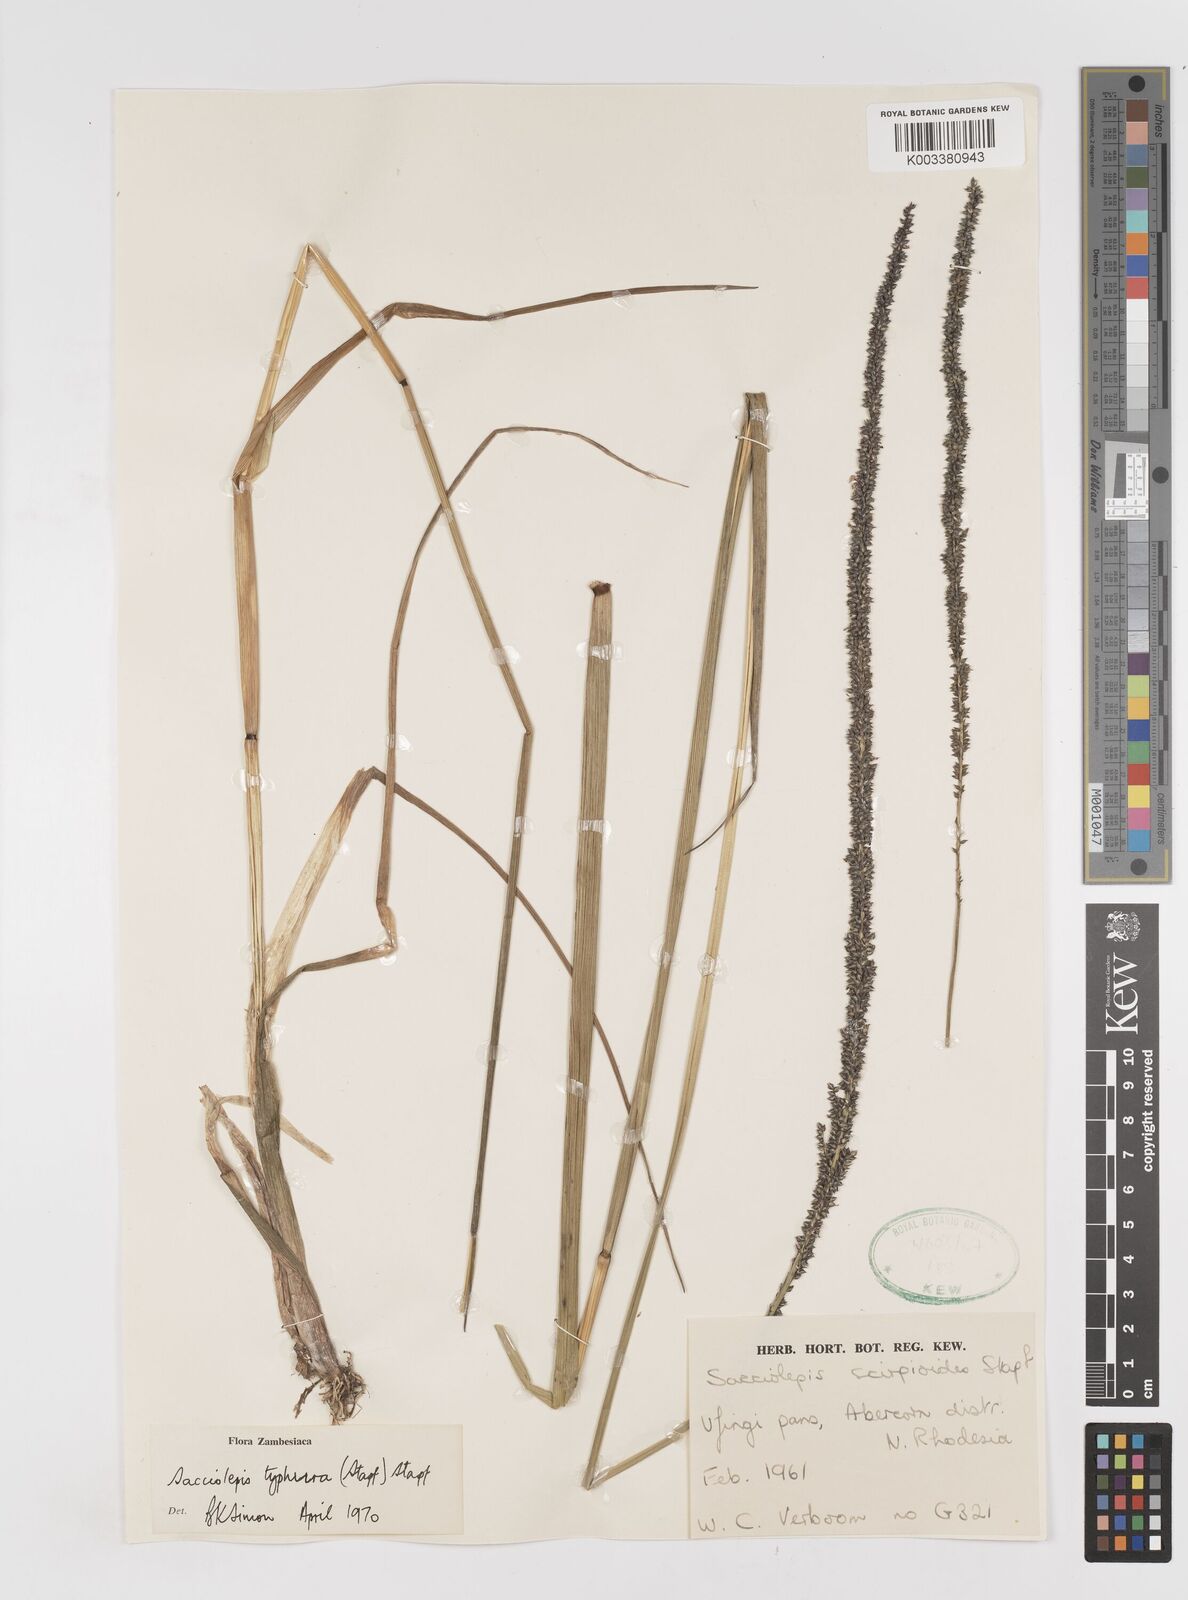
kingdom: Plantae
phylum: Tracheophyta
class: Liliopsida
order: Poales
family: Poaceae
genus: Sacciolepis
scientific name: Sacciolepis typhura
